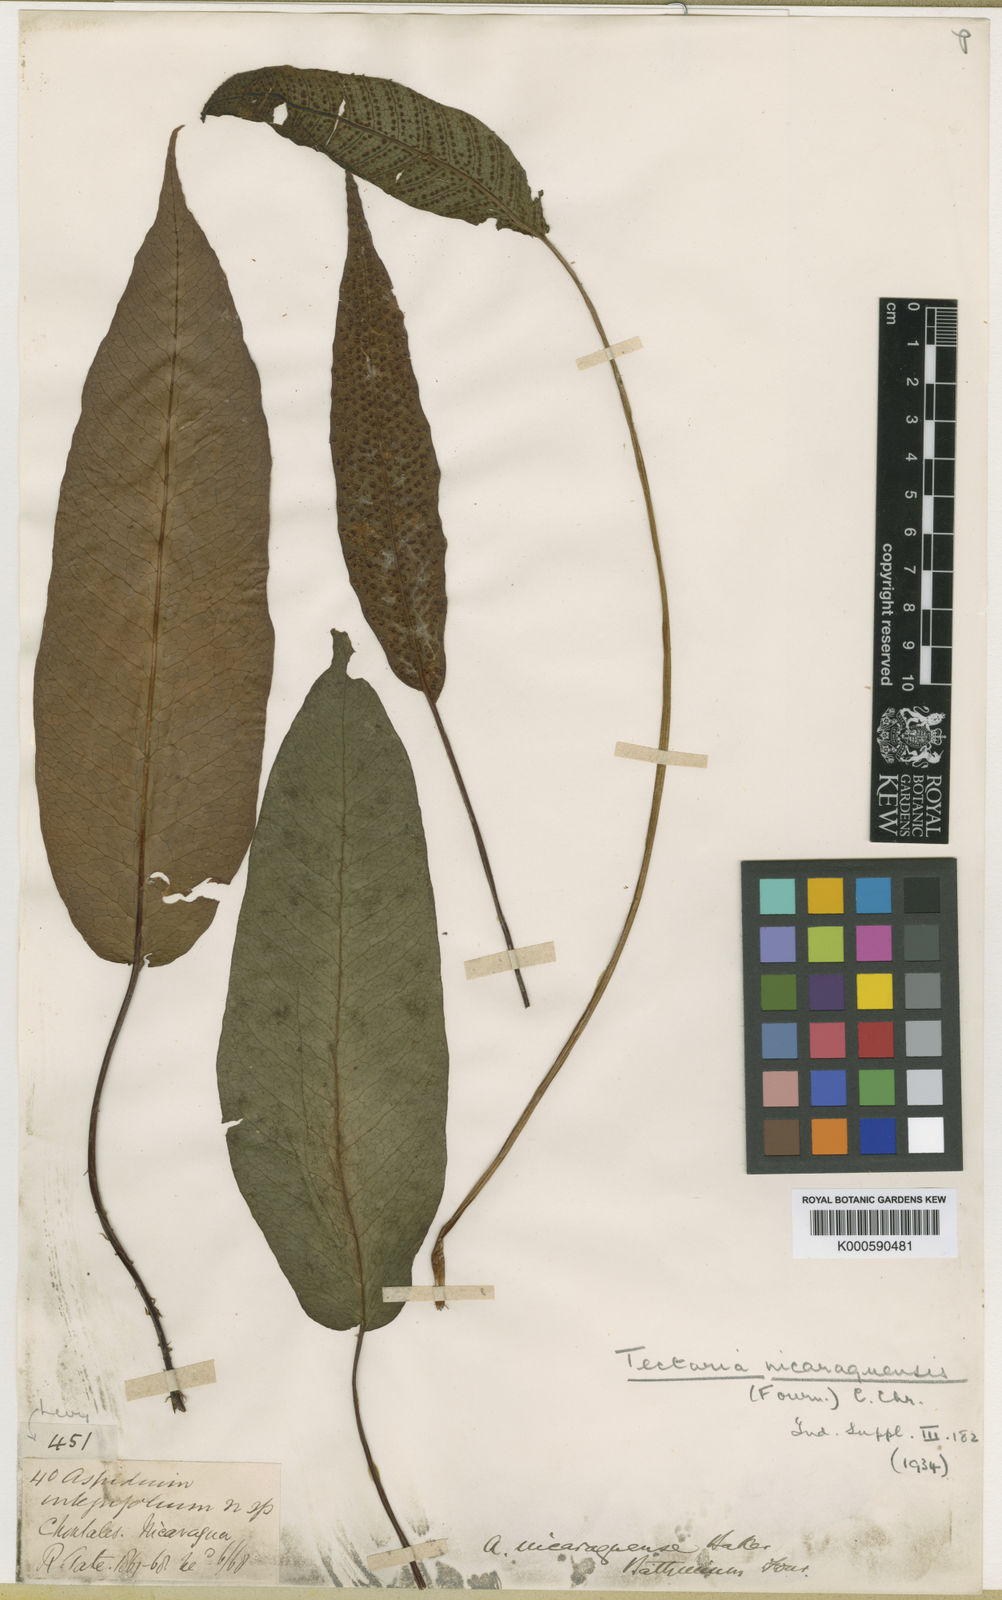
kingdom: Plantae
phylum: Tracheophyta
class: Polypodiopsida
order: Polypodiales
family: Tectariaceae
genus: Tectaria
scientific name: Tectaria nicaraguensis
